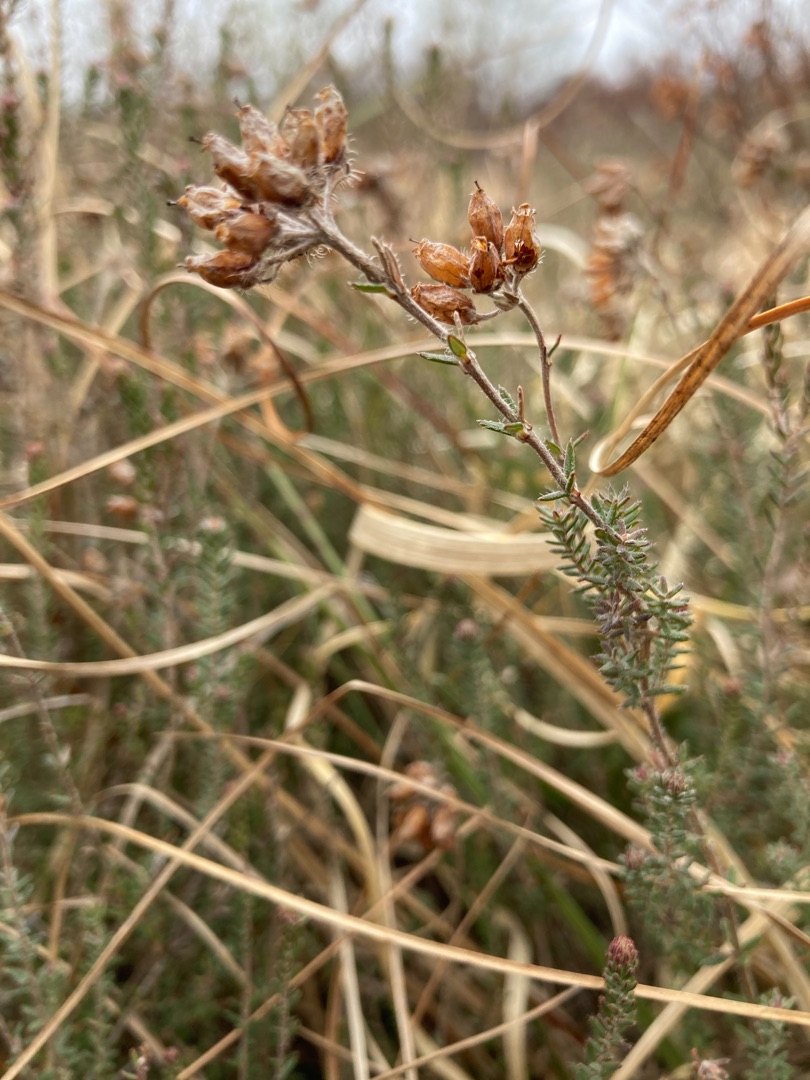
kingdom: Plantae
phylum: Tracheophyta
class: Magnoliopsida
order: Ericales
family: Ericaceae
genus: Erica
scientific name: Erica tetralix
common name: Klokkelyng
